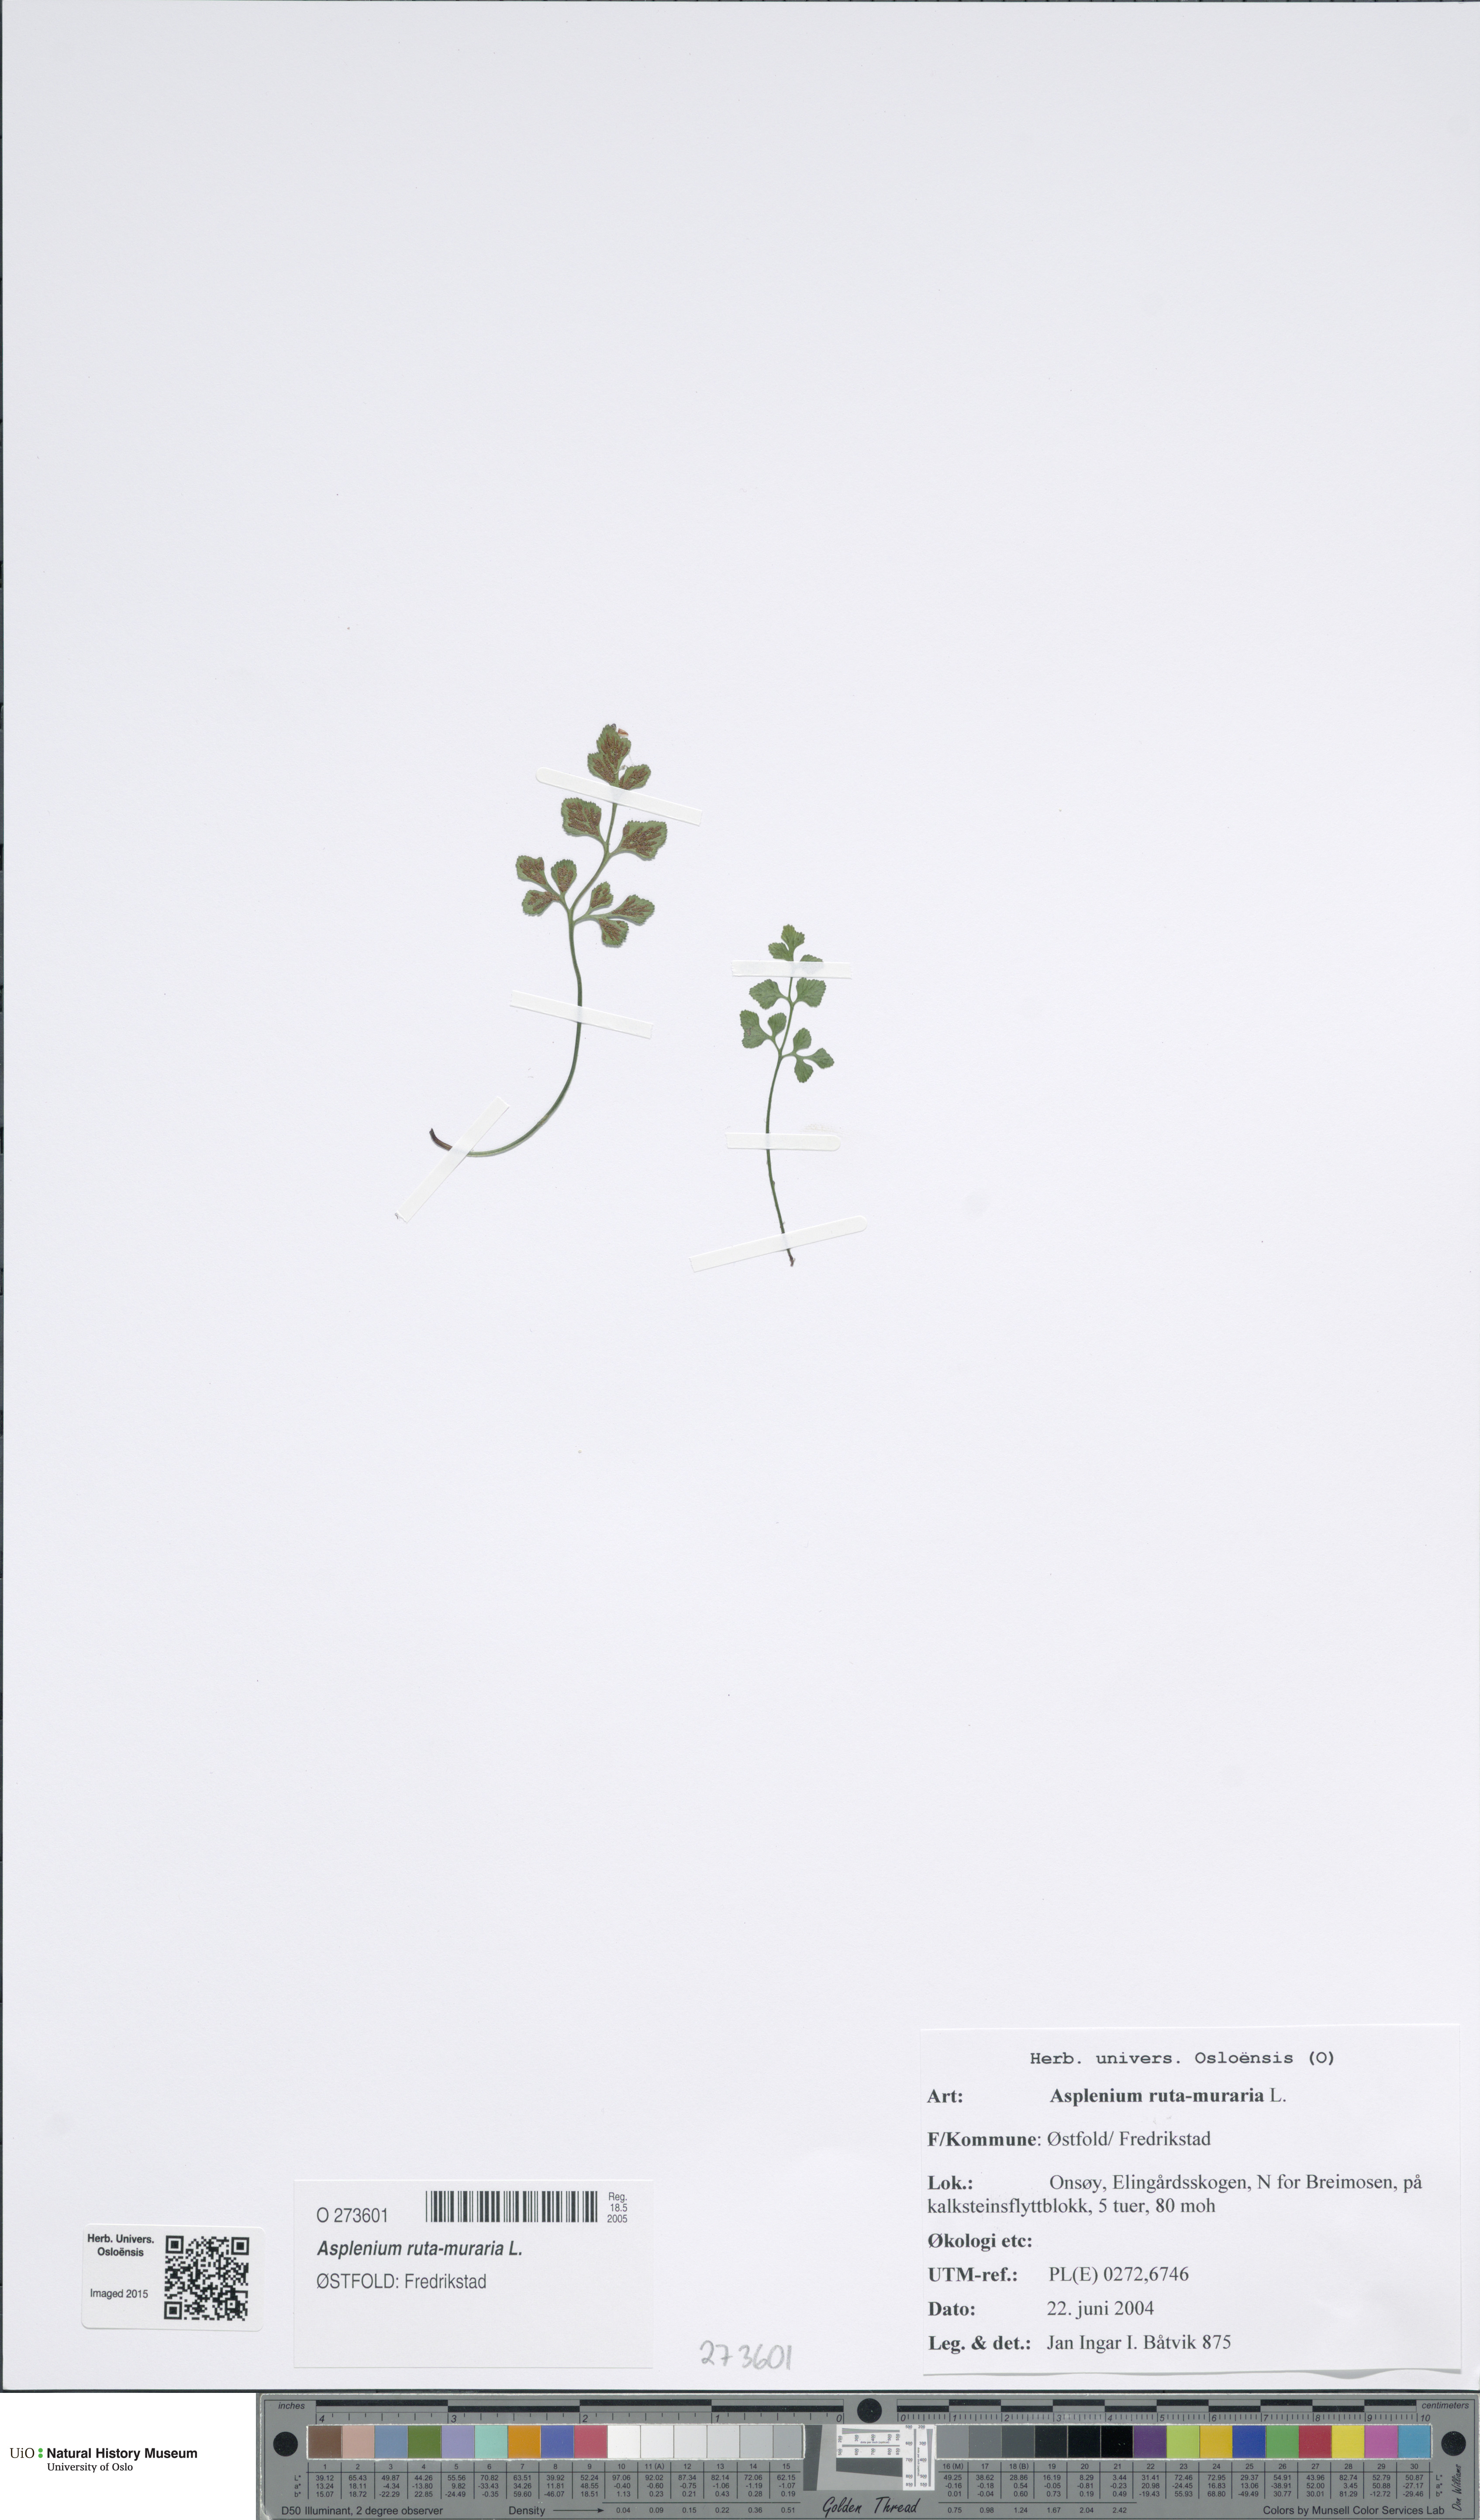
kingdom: Plantae
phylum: Tracheophyta
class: Polypodiopsida
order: Polypodiales
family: Aspleniaceae
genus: Asplenium
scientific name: Asplenium ruta-muraria
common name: Wall-rue
